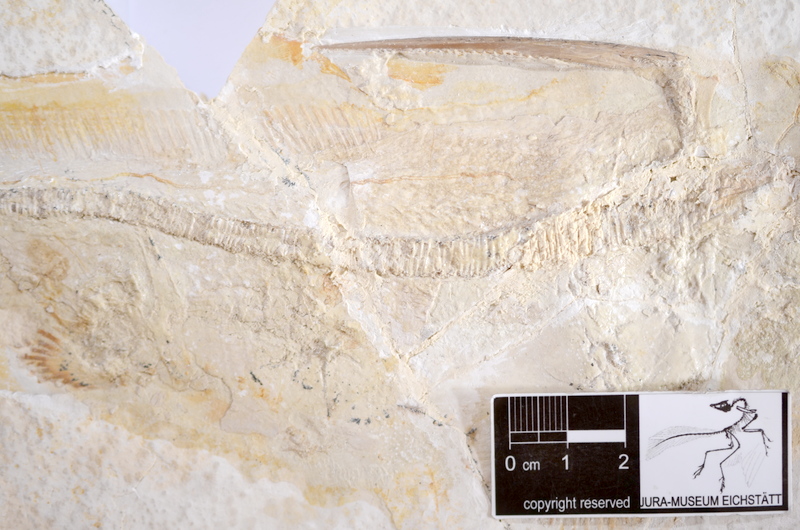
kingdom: Animalia
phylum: Chordata
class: Holocephali
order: Chimaeriformes
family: Rhinochimaeroidae
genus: Elasmodectes
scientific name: Elasmodectes avitus
